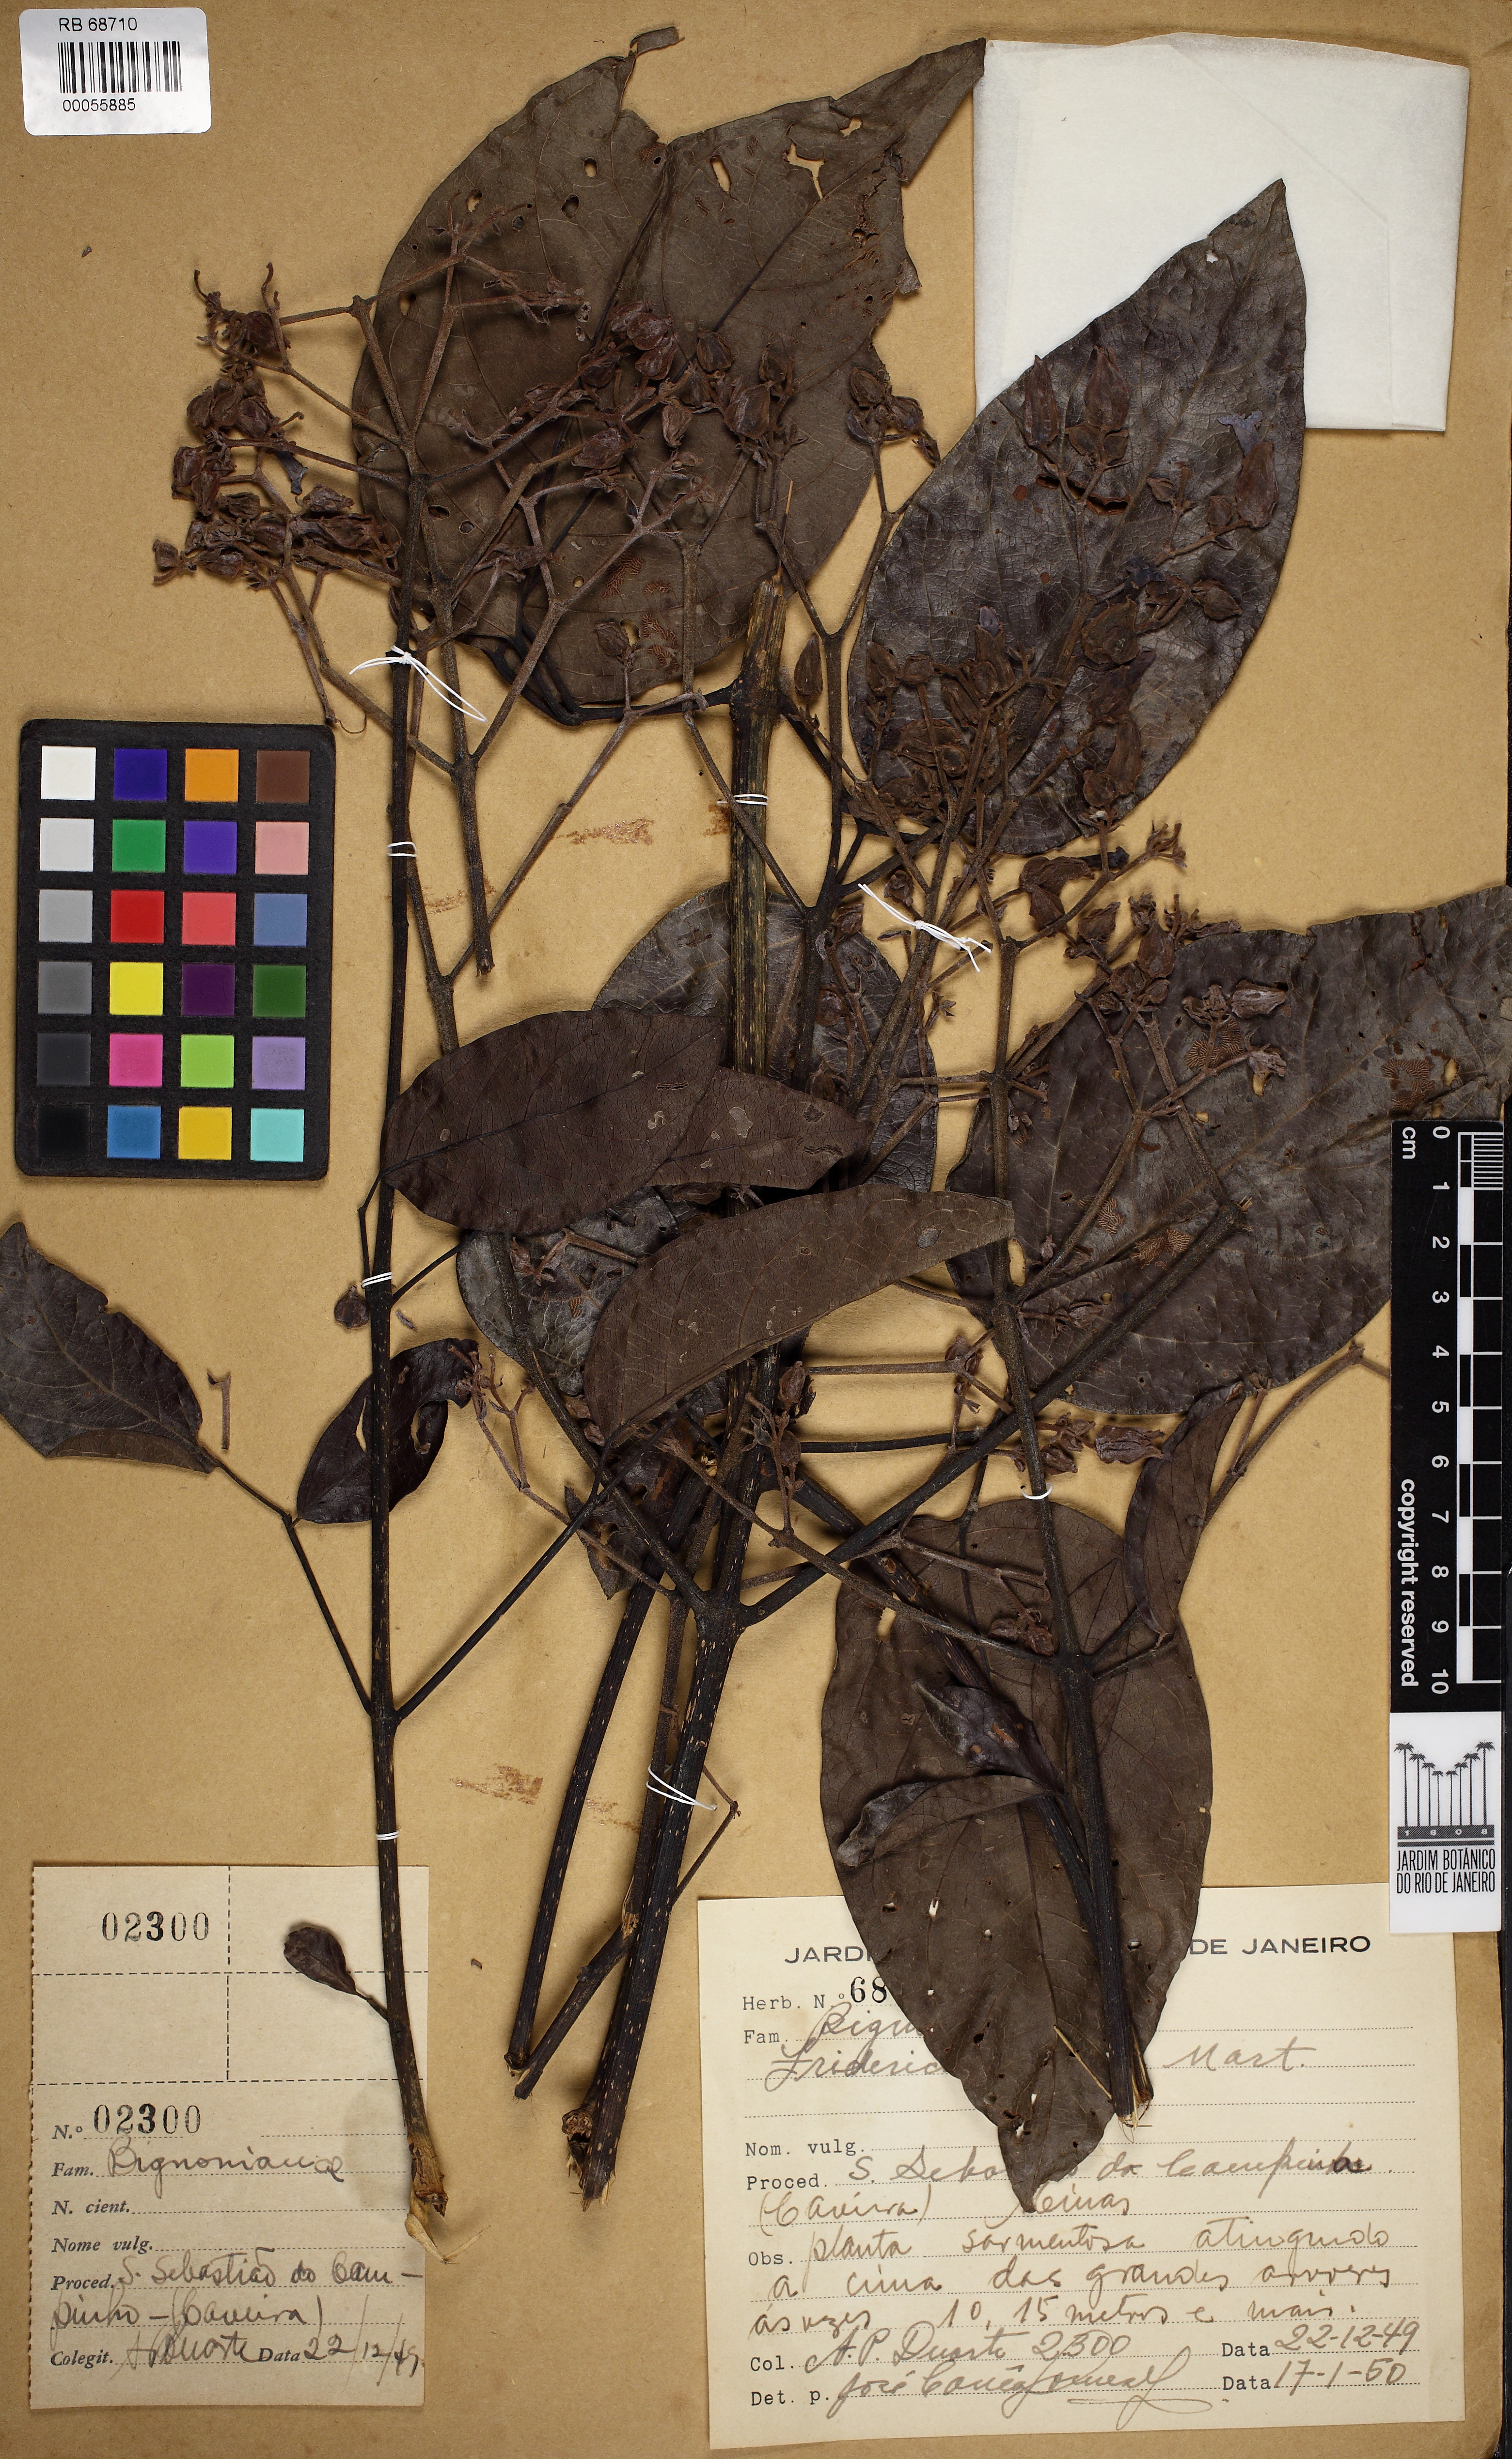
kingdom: Plantae
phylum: Tracheophyta
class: Magnoliopsida
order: Lamiales
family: Bignoniaceae
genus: Fridericia
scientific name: Fridericia
